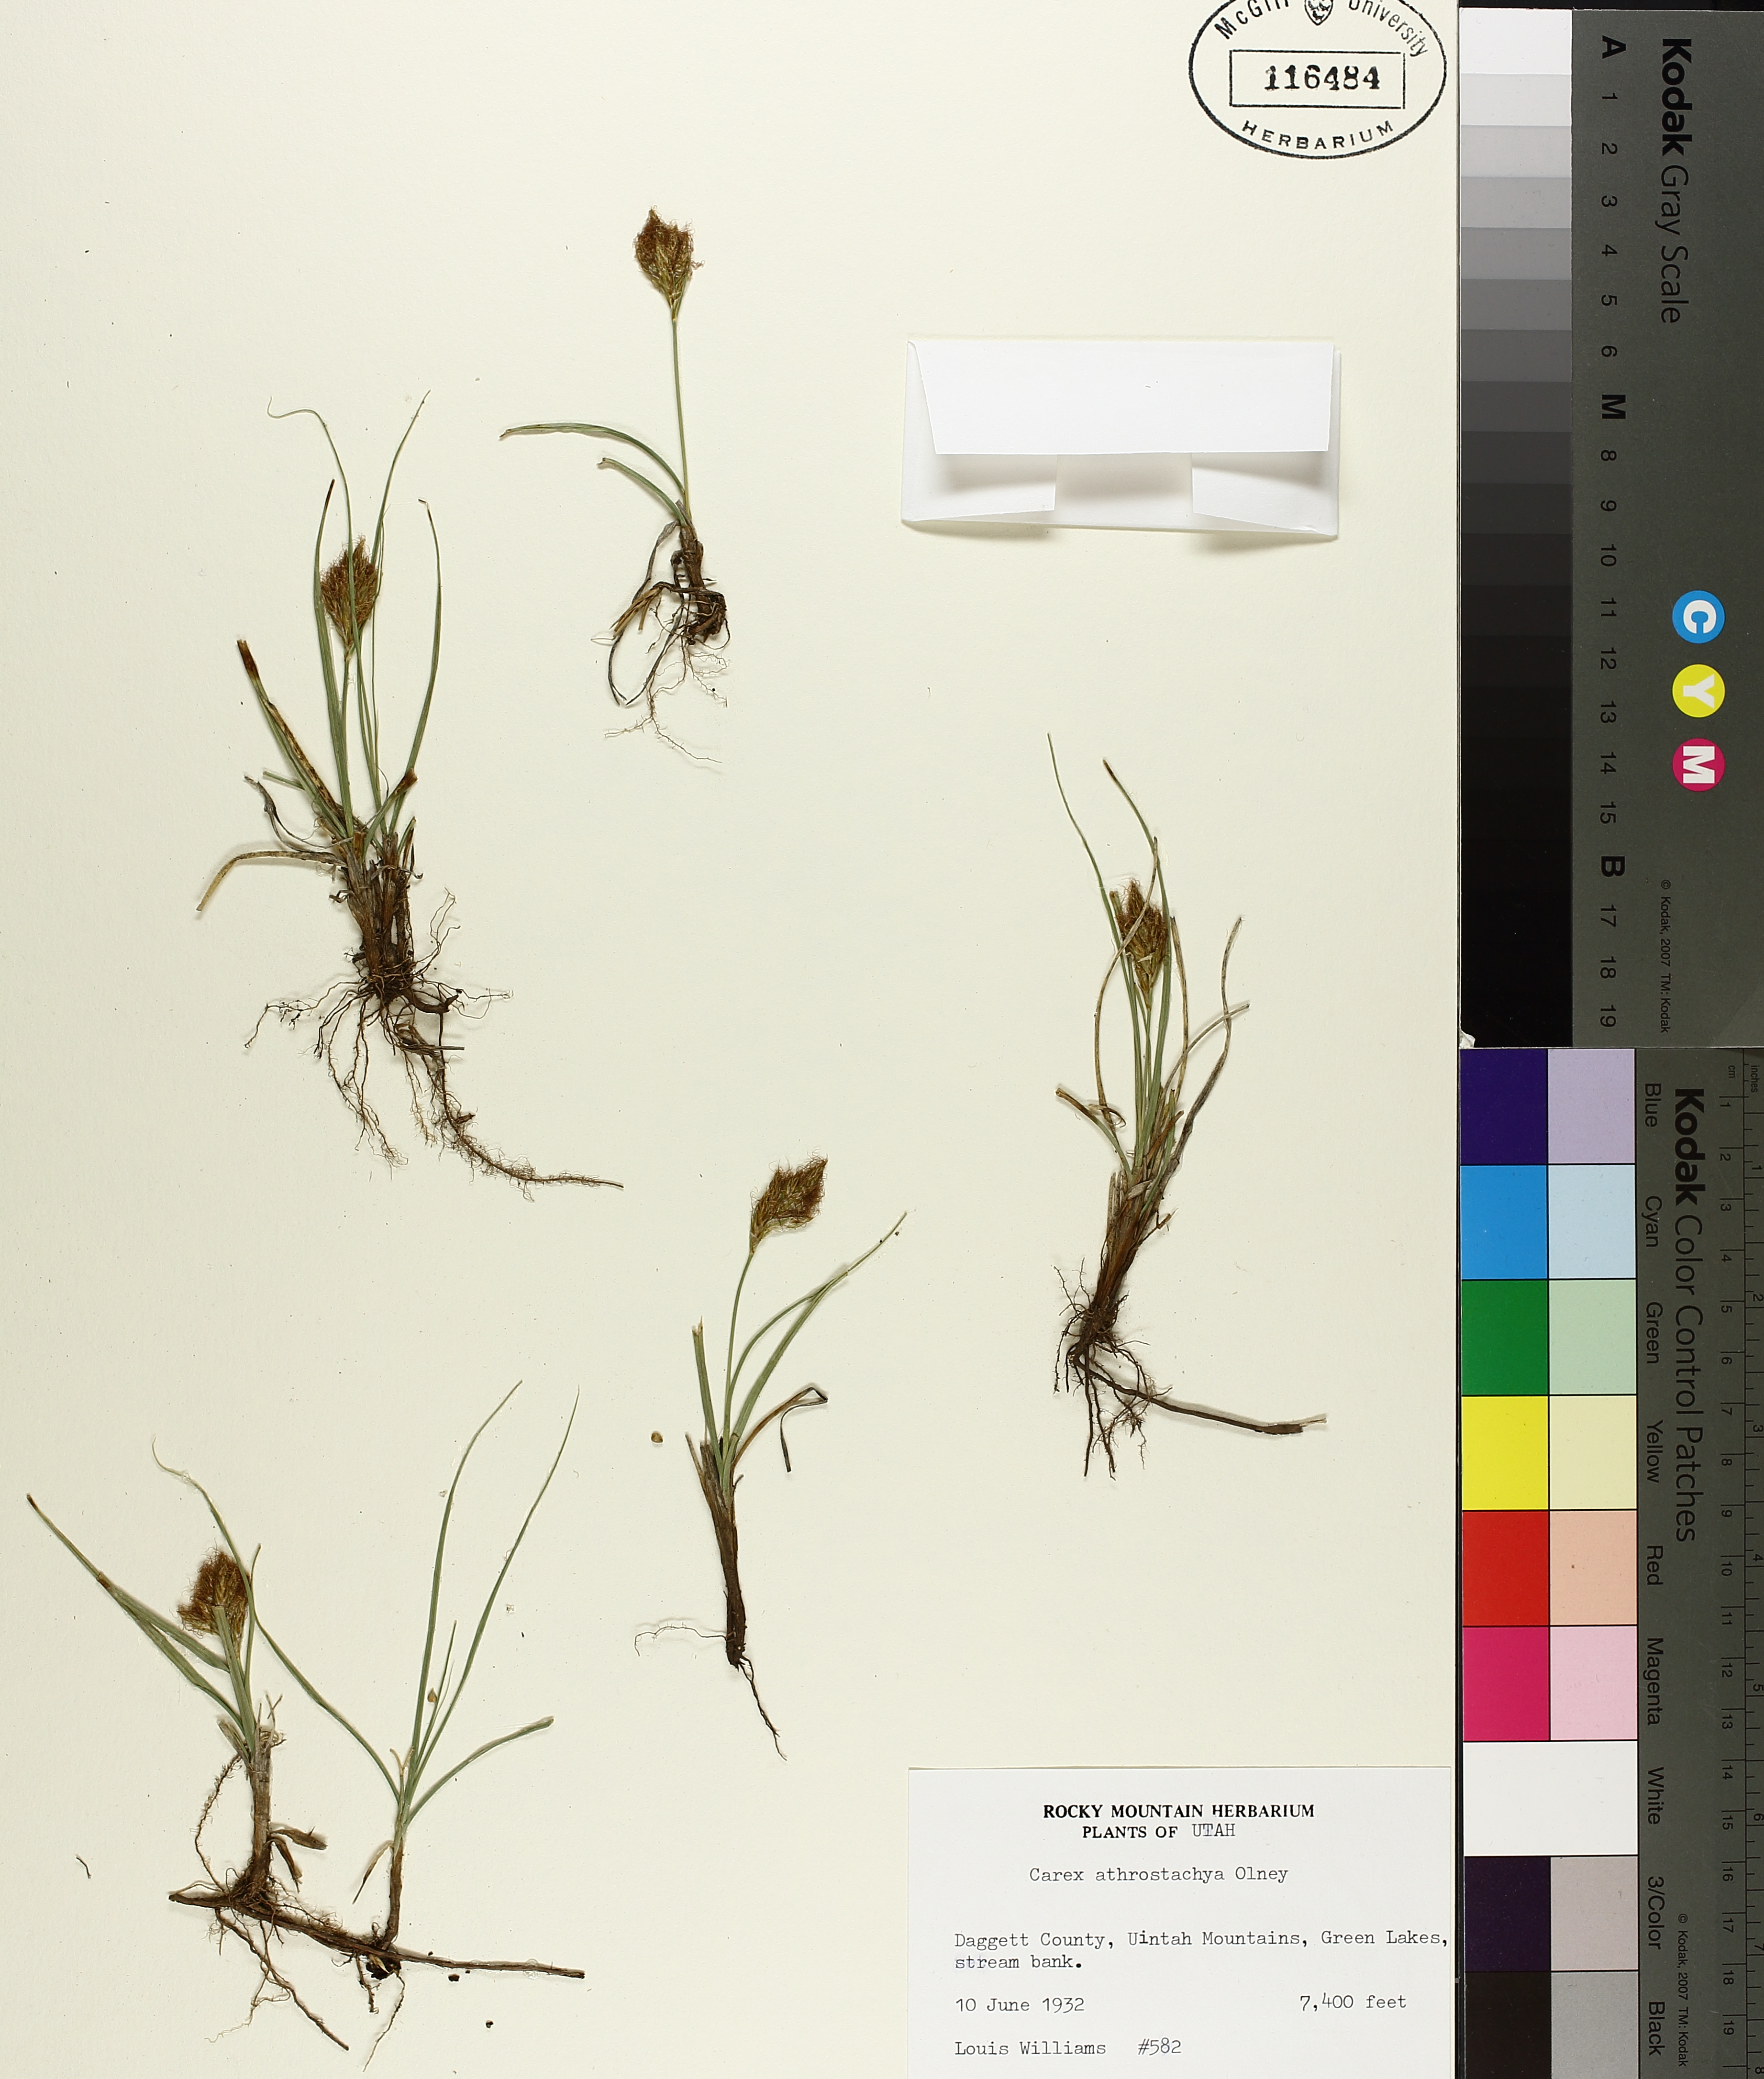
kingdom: Plantae
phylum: Tracheophyta
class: Liliopsida
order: Poales
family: Cyperaceae
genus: Carex
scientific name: Carex athrostachya
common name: Slenderbeak sedge
